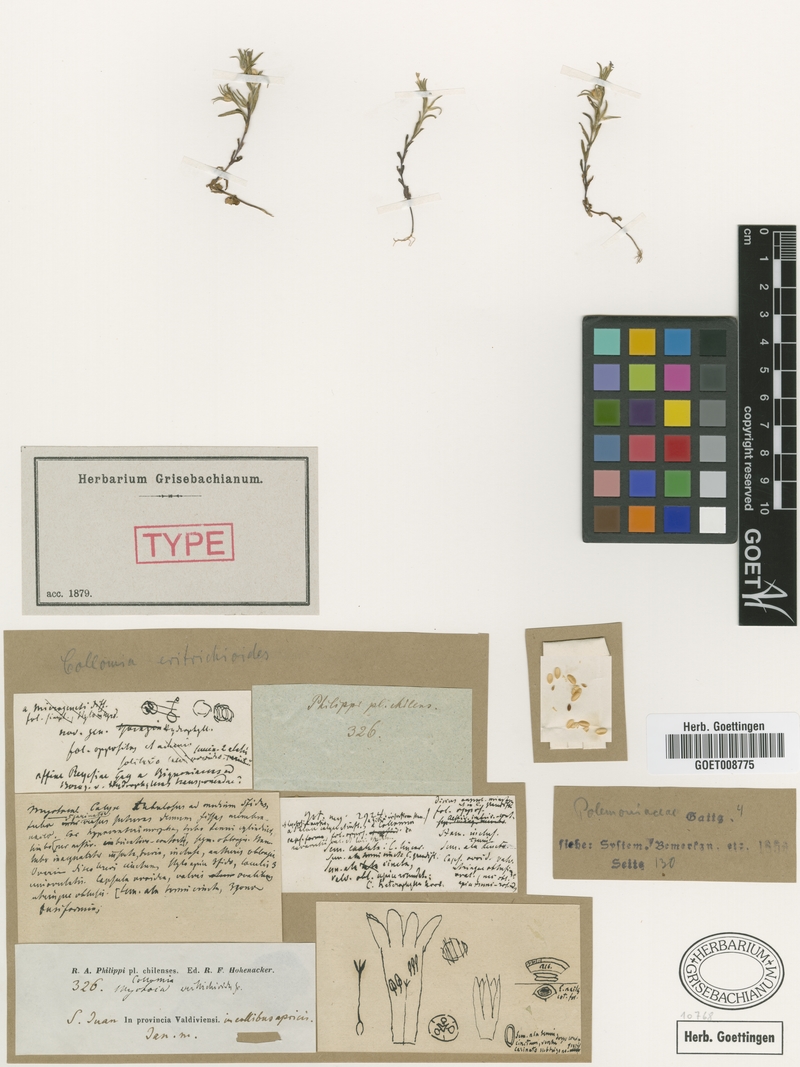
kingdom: Plantae
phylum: Tracheophyta
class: Magnoliopsida
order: Ericales
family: Polemoniaceae
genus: Phlox
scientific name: Phlox gracilis
